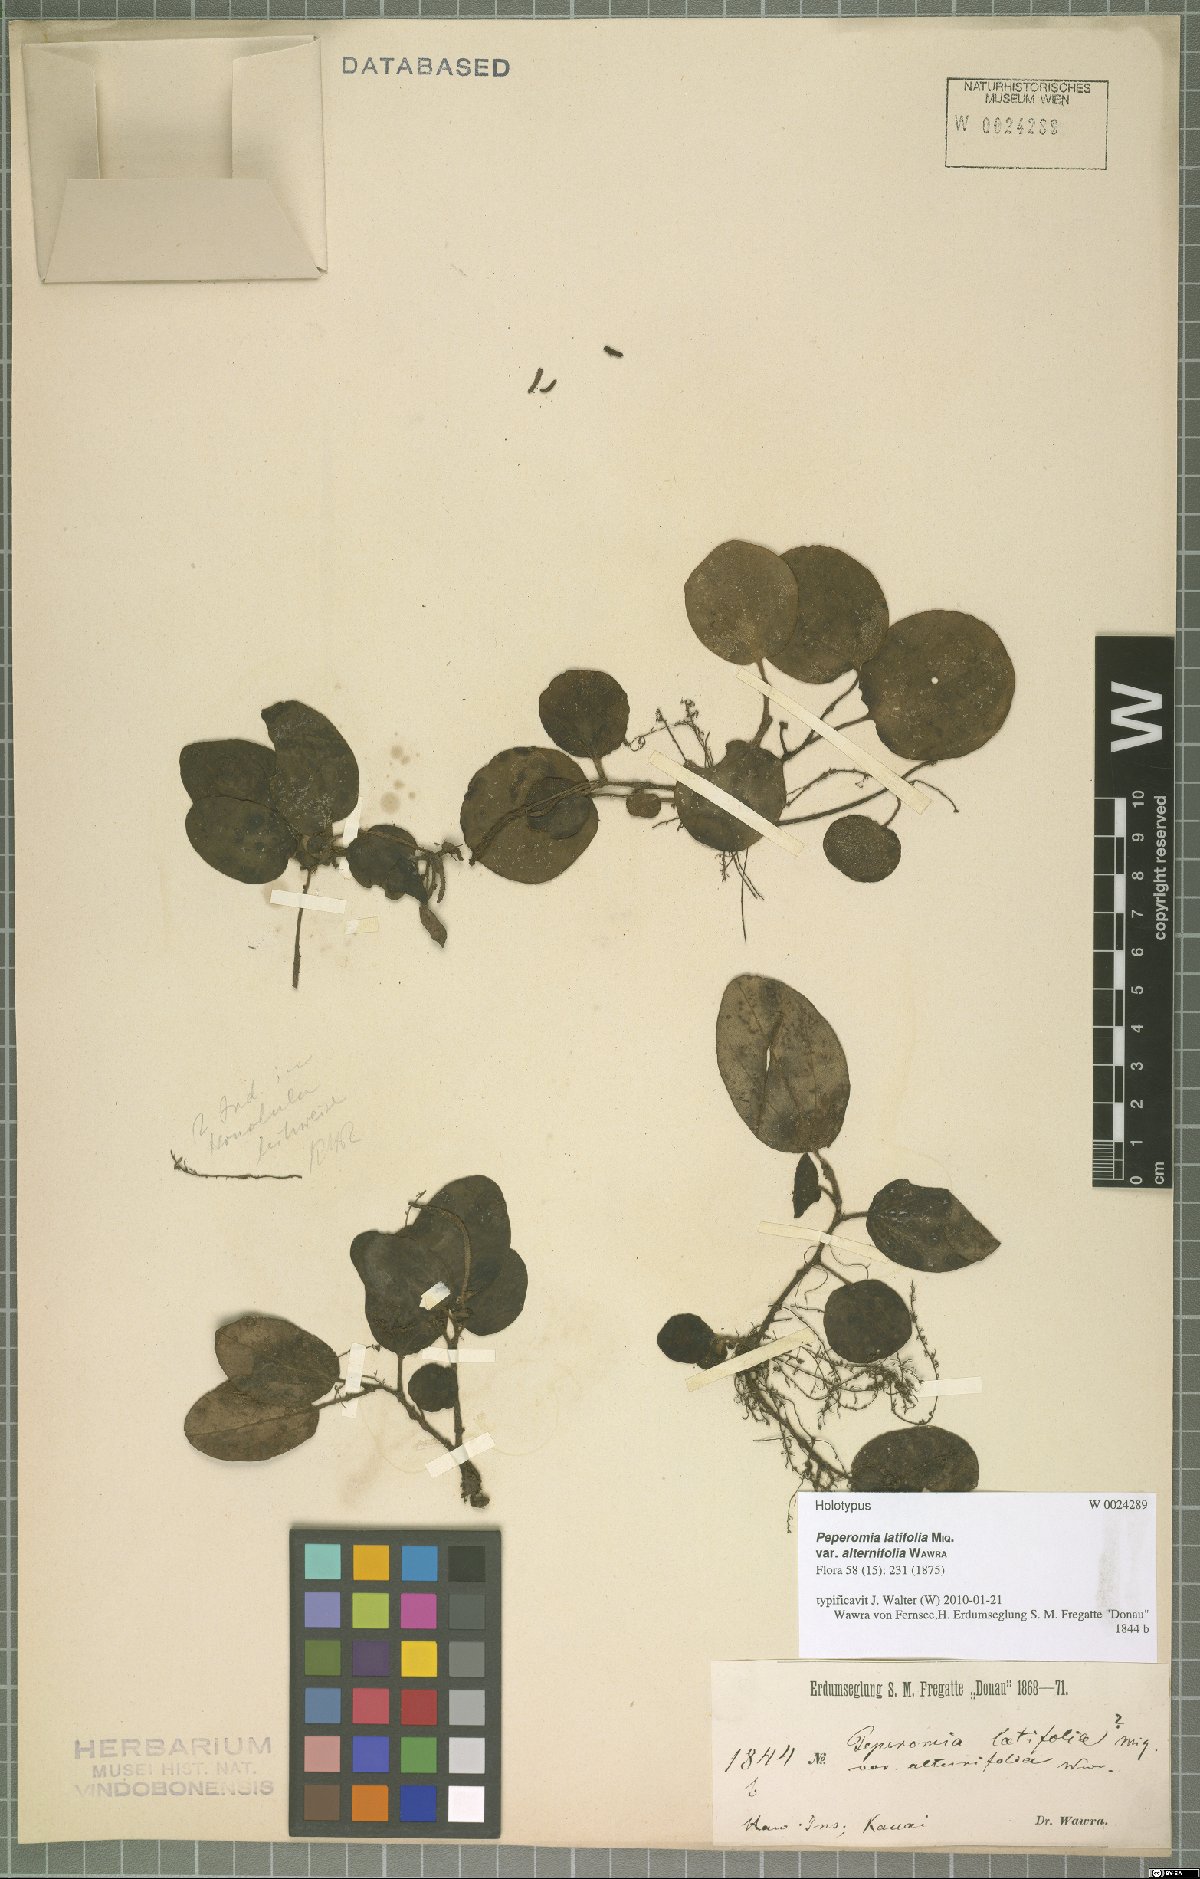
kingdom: Plantae
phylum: Tracheophyta
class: Magnoliopsida
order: Piperales
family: Piperaceae
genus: Peperomia
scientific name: Peperomia latifolia
